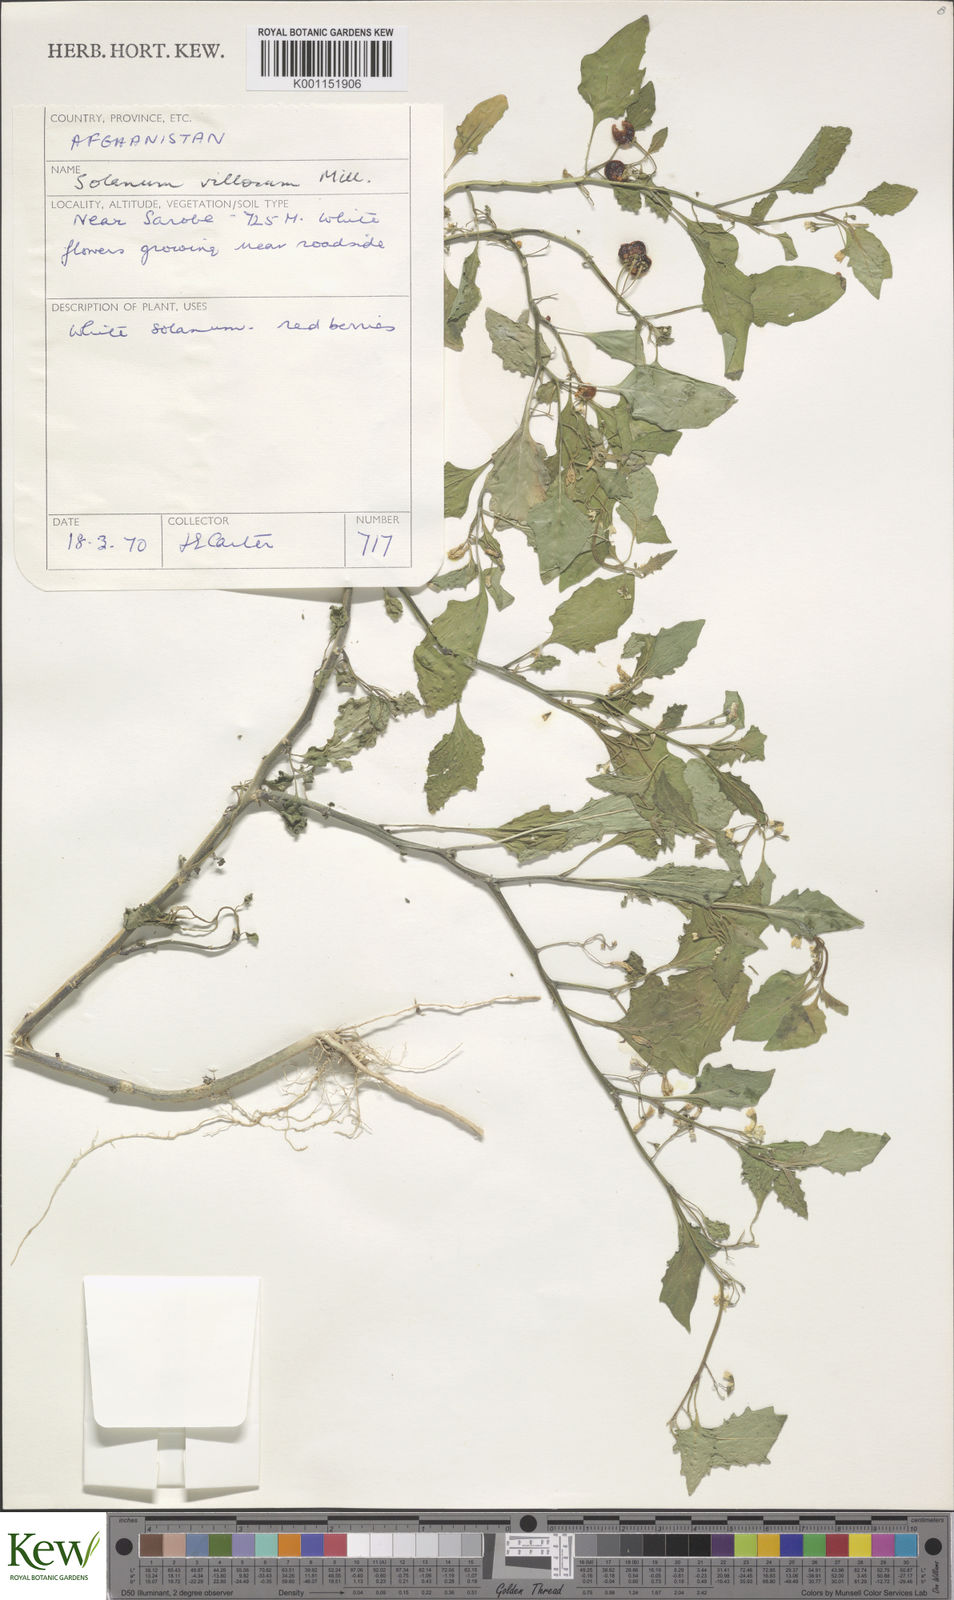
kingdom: Plantae
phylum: Tracheophyta
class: Magnoliopsida
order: Solanales
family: Solanaceae
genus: Solanum
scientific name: Solanum villosum
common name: Red nightshade
